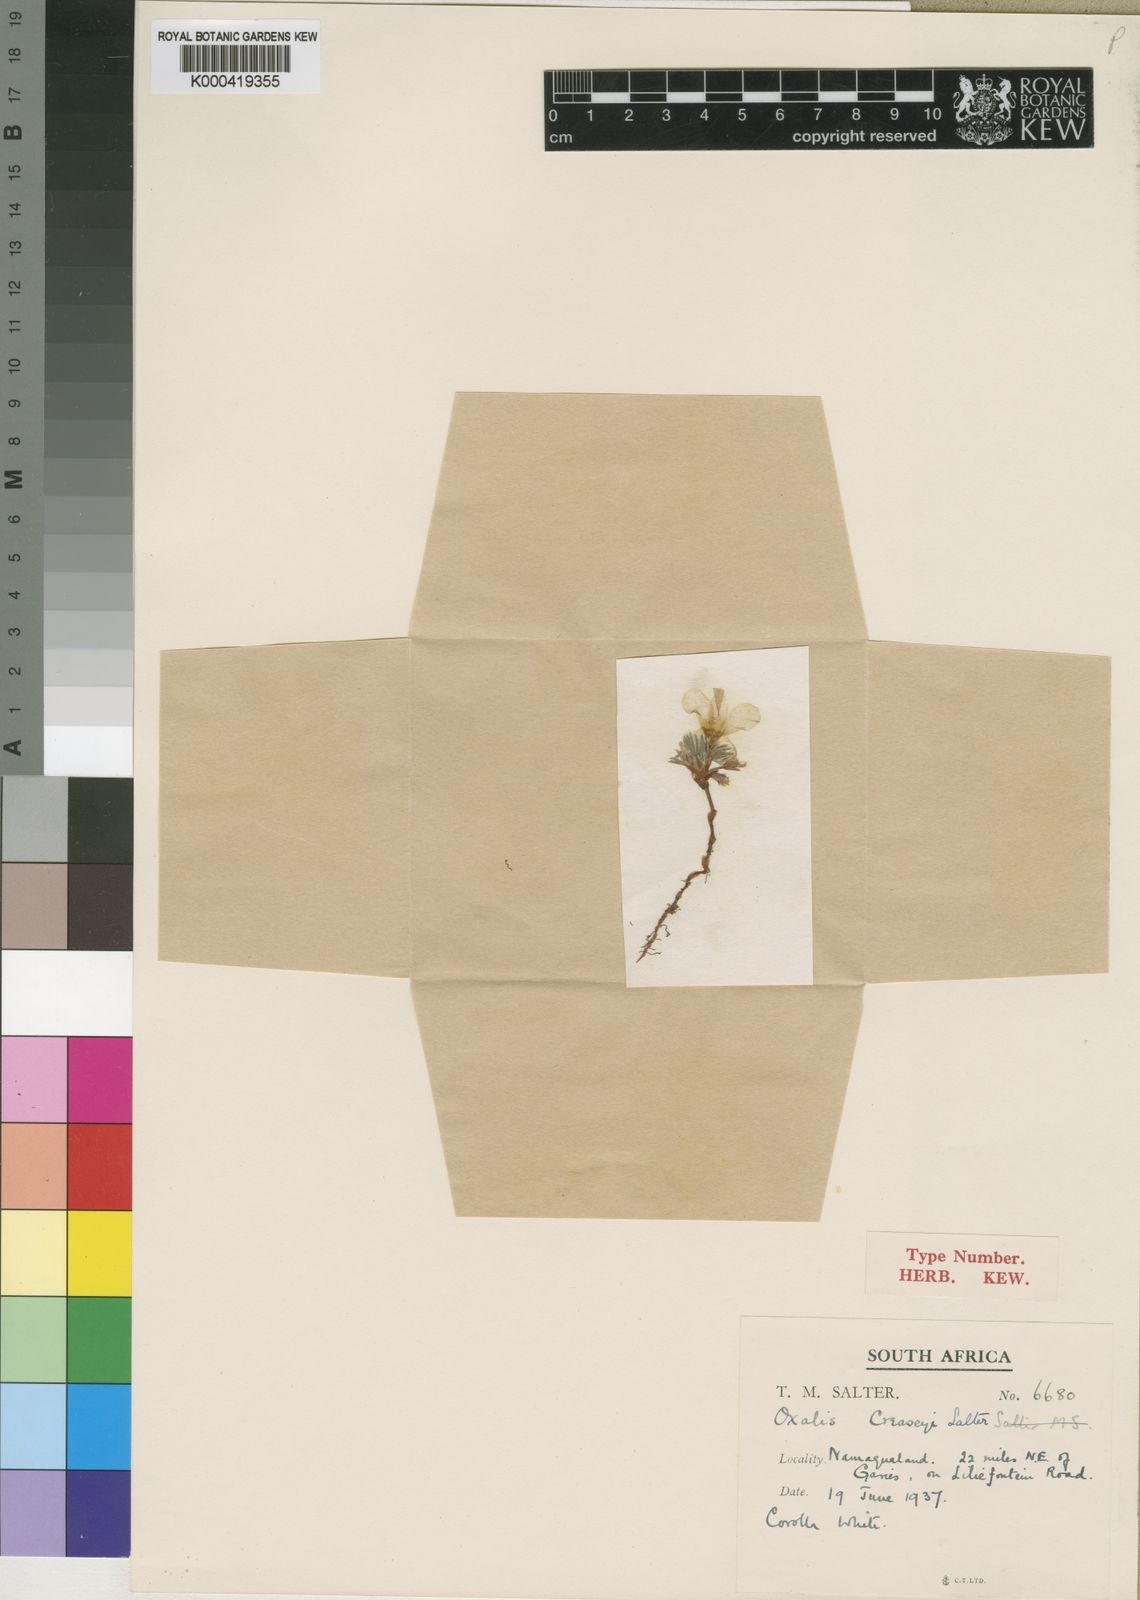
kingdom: Plantae
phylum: Tracheophyta
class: Magnoliopsida
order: Oxalidales
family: Oxalidaceae
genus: Oxalis
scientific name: Oxalis creaseyi
